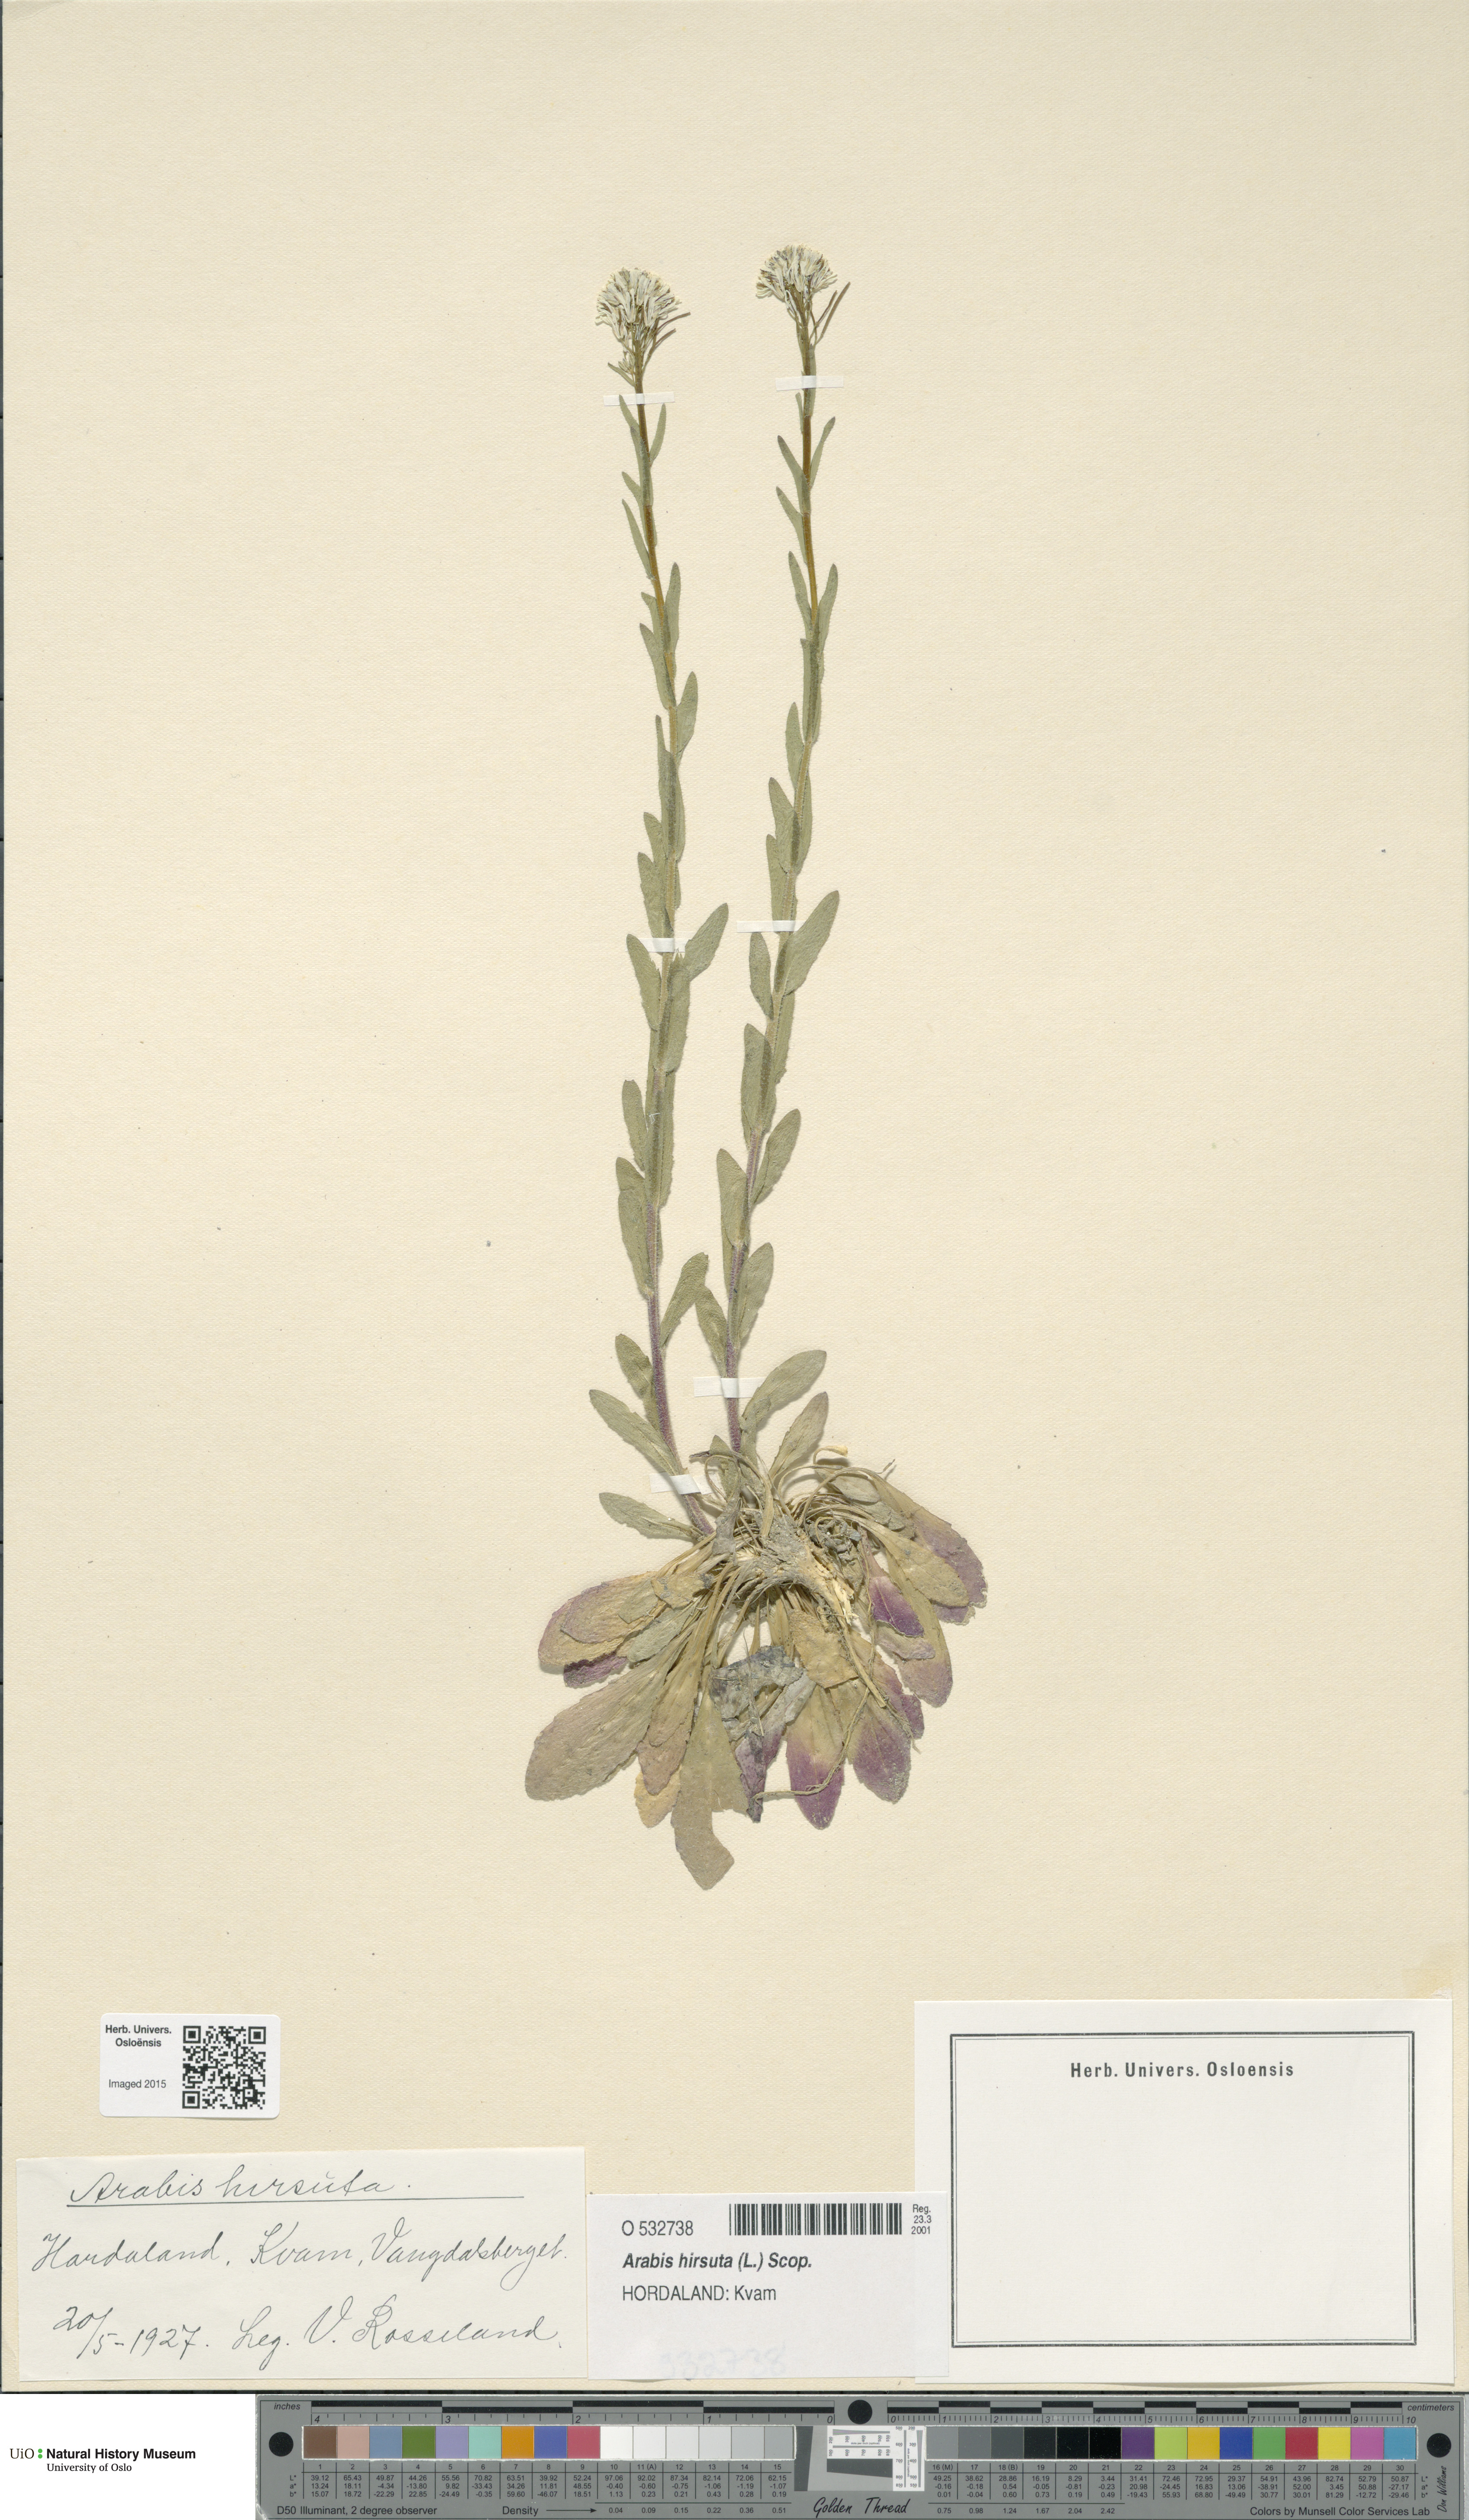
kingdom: Plantae
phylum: Tracheophyta
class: Magnoliopsida
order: Brassicales
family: Brassicaceae
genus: Arabis
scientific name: Arabis hirsuta
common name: Hairy rock-cress
